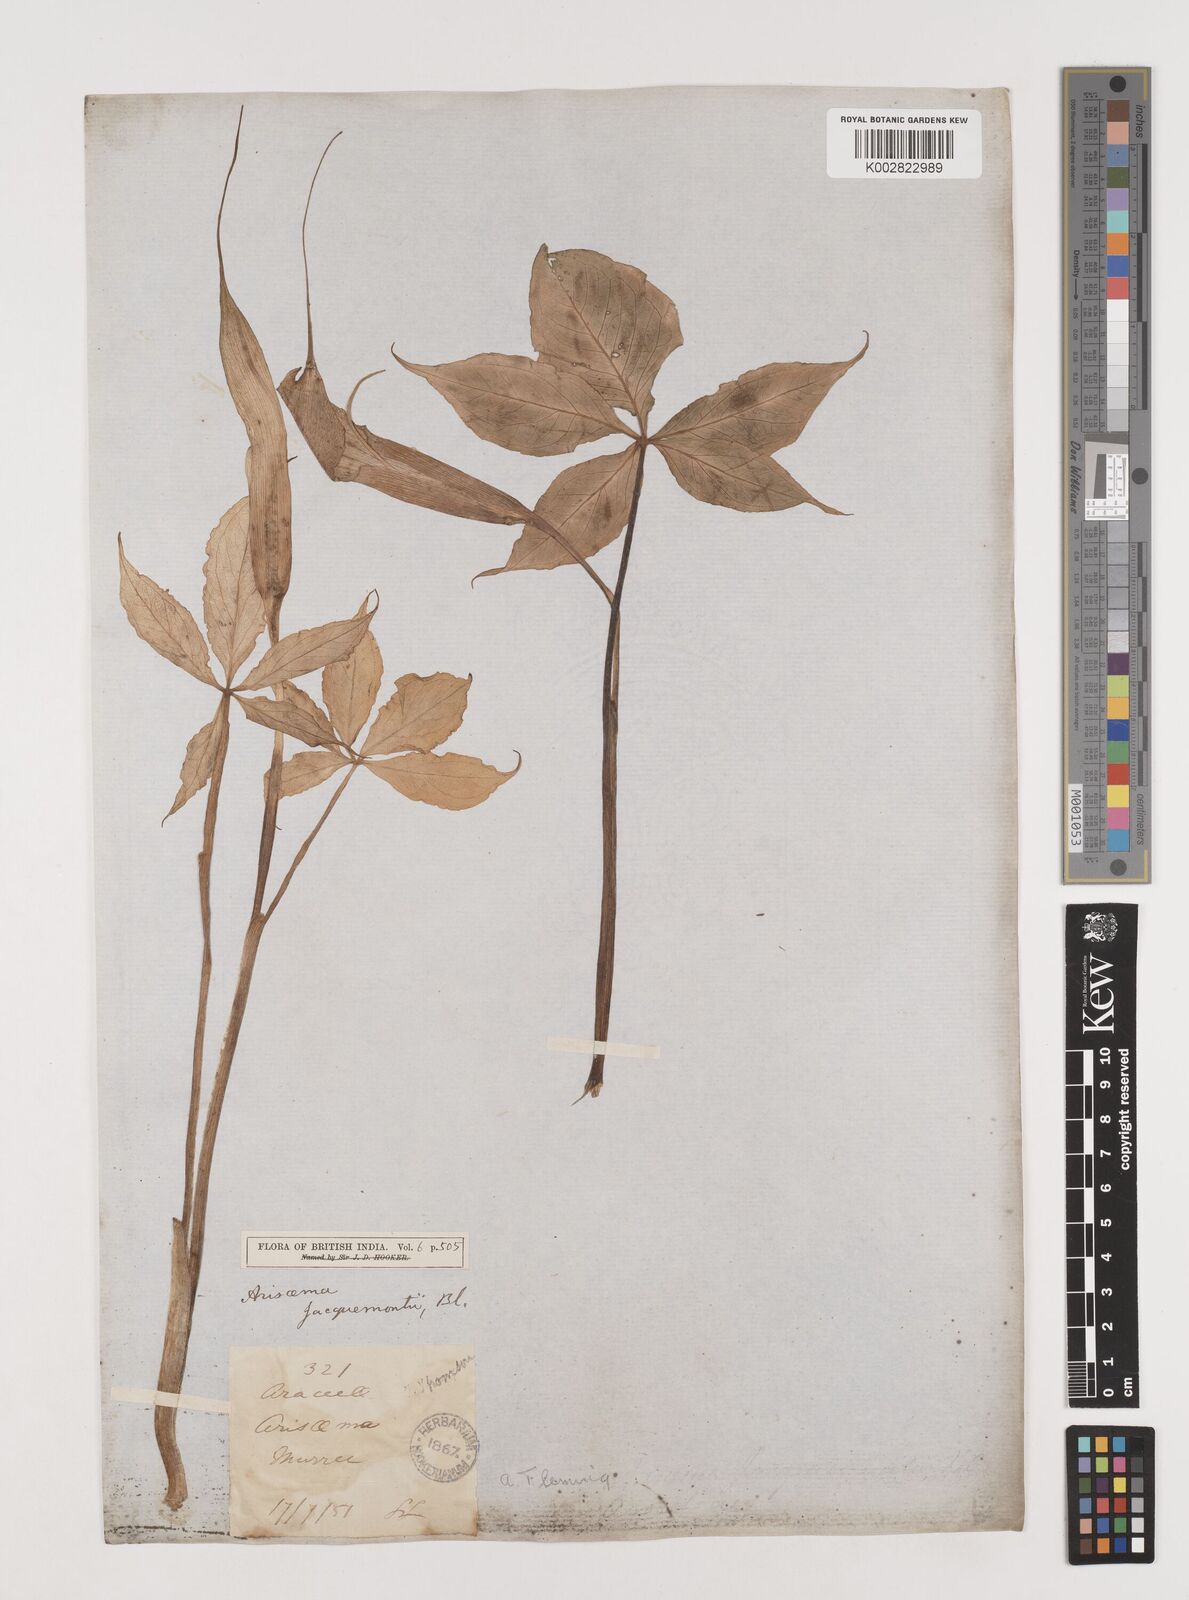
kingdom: Plantae
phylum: Tracheophyta
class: Liliopsida
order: Alismatales
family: Araceae
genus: Arisaema
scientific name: Arisaema jacquemontii
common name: Jacquemont's cobra-lily
